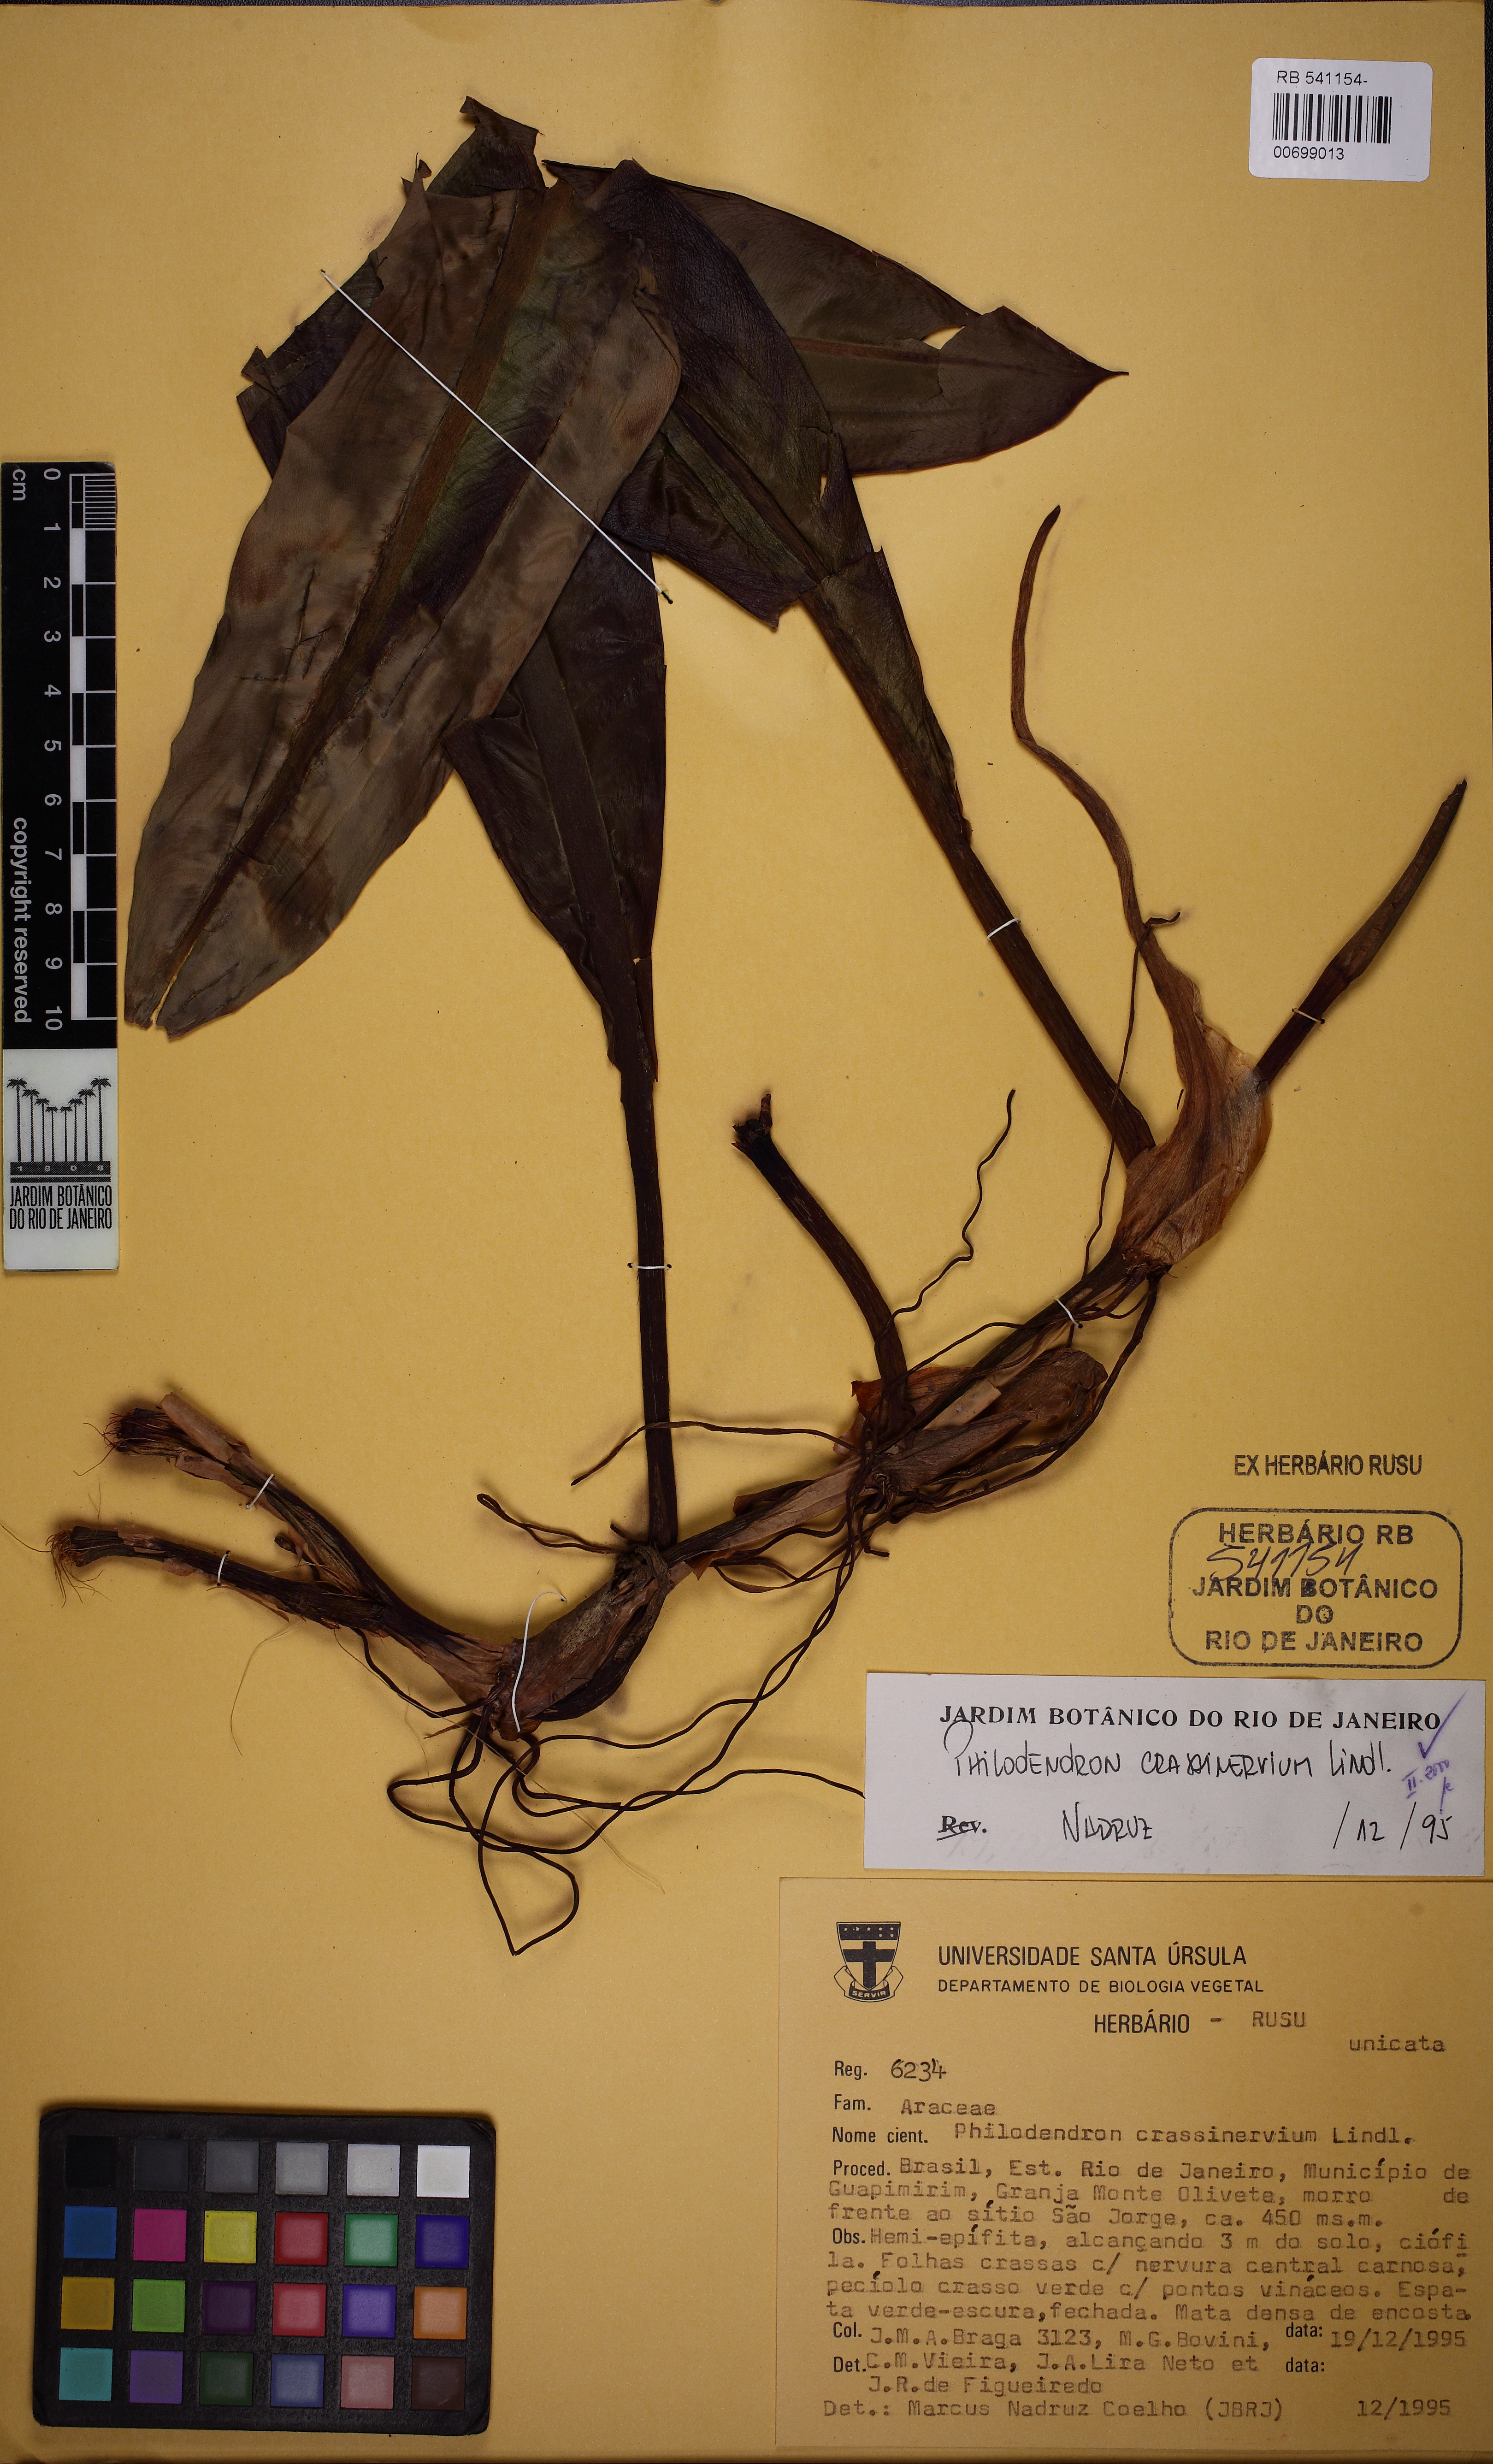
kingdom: Plantae
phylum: Tracheophyta
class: Liliopsida
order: Alismatales
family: Araceae
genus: Philodendron
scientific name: Philodendron crassinervium
